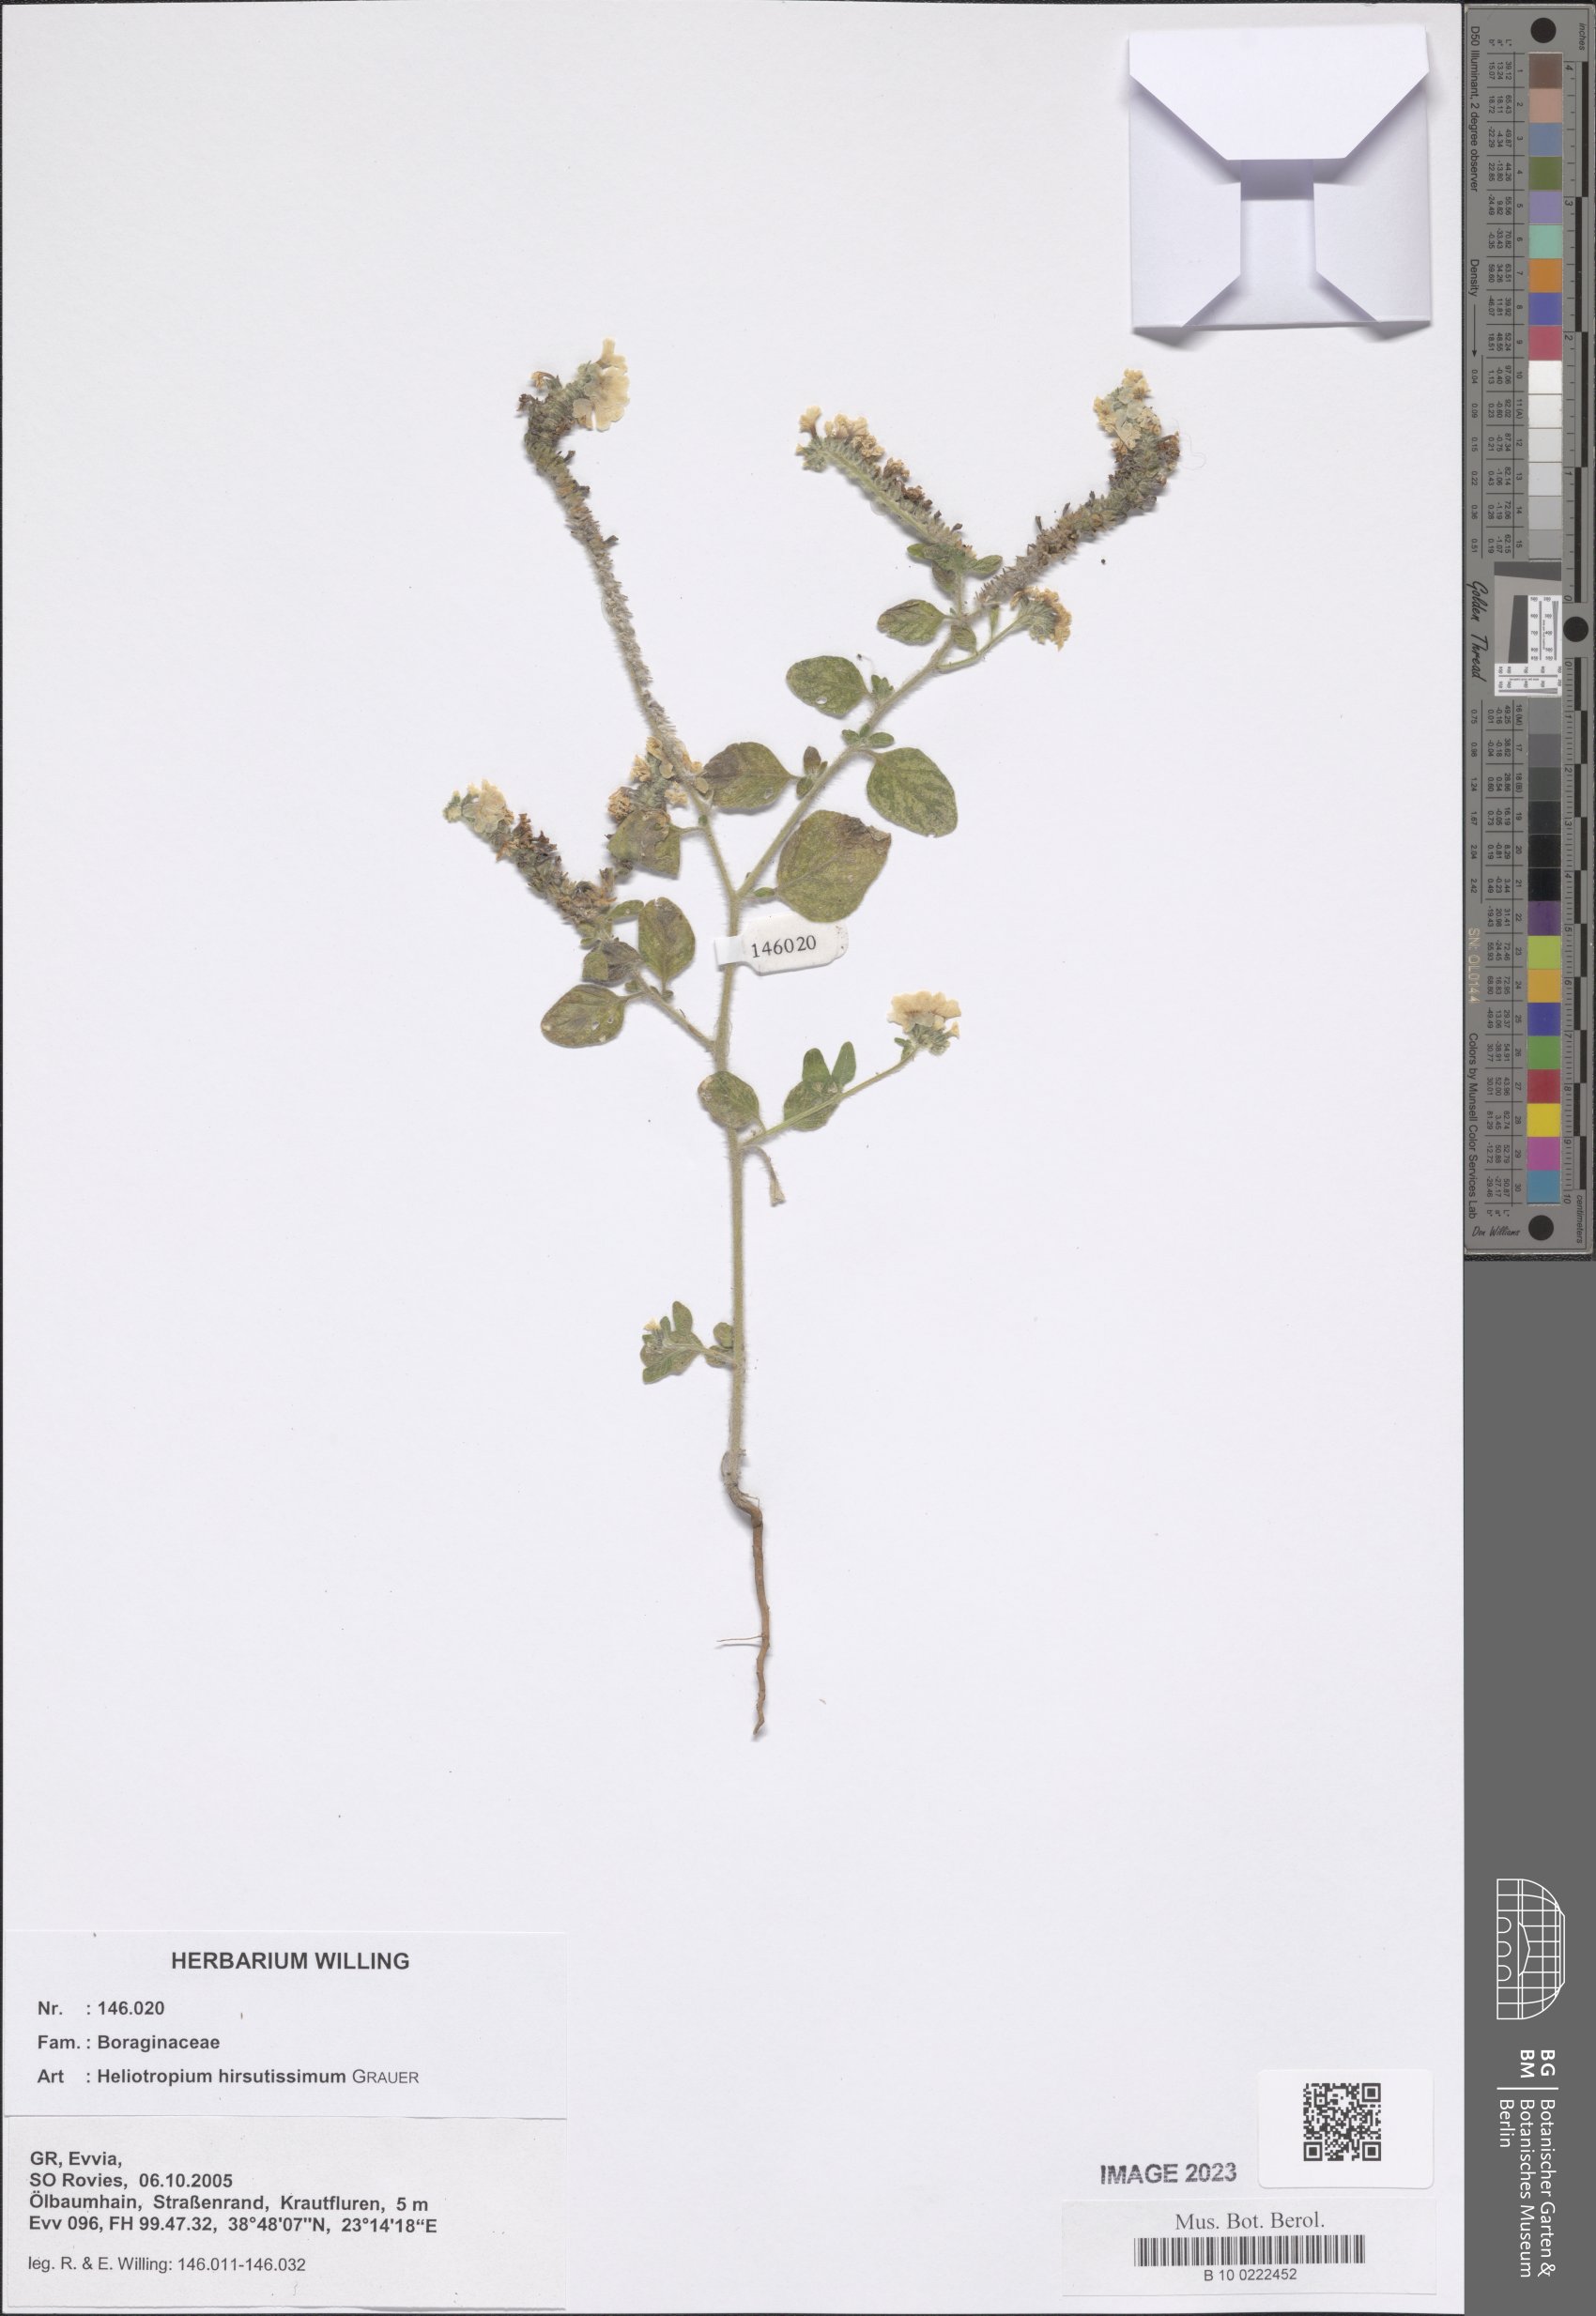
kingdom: Plantae
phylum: Tracheophyta
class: Magnoliopsida
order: Boraginales
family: Heliotropiaceae
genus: Heliotropium
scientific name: Heliotropium hirsutissimum
